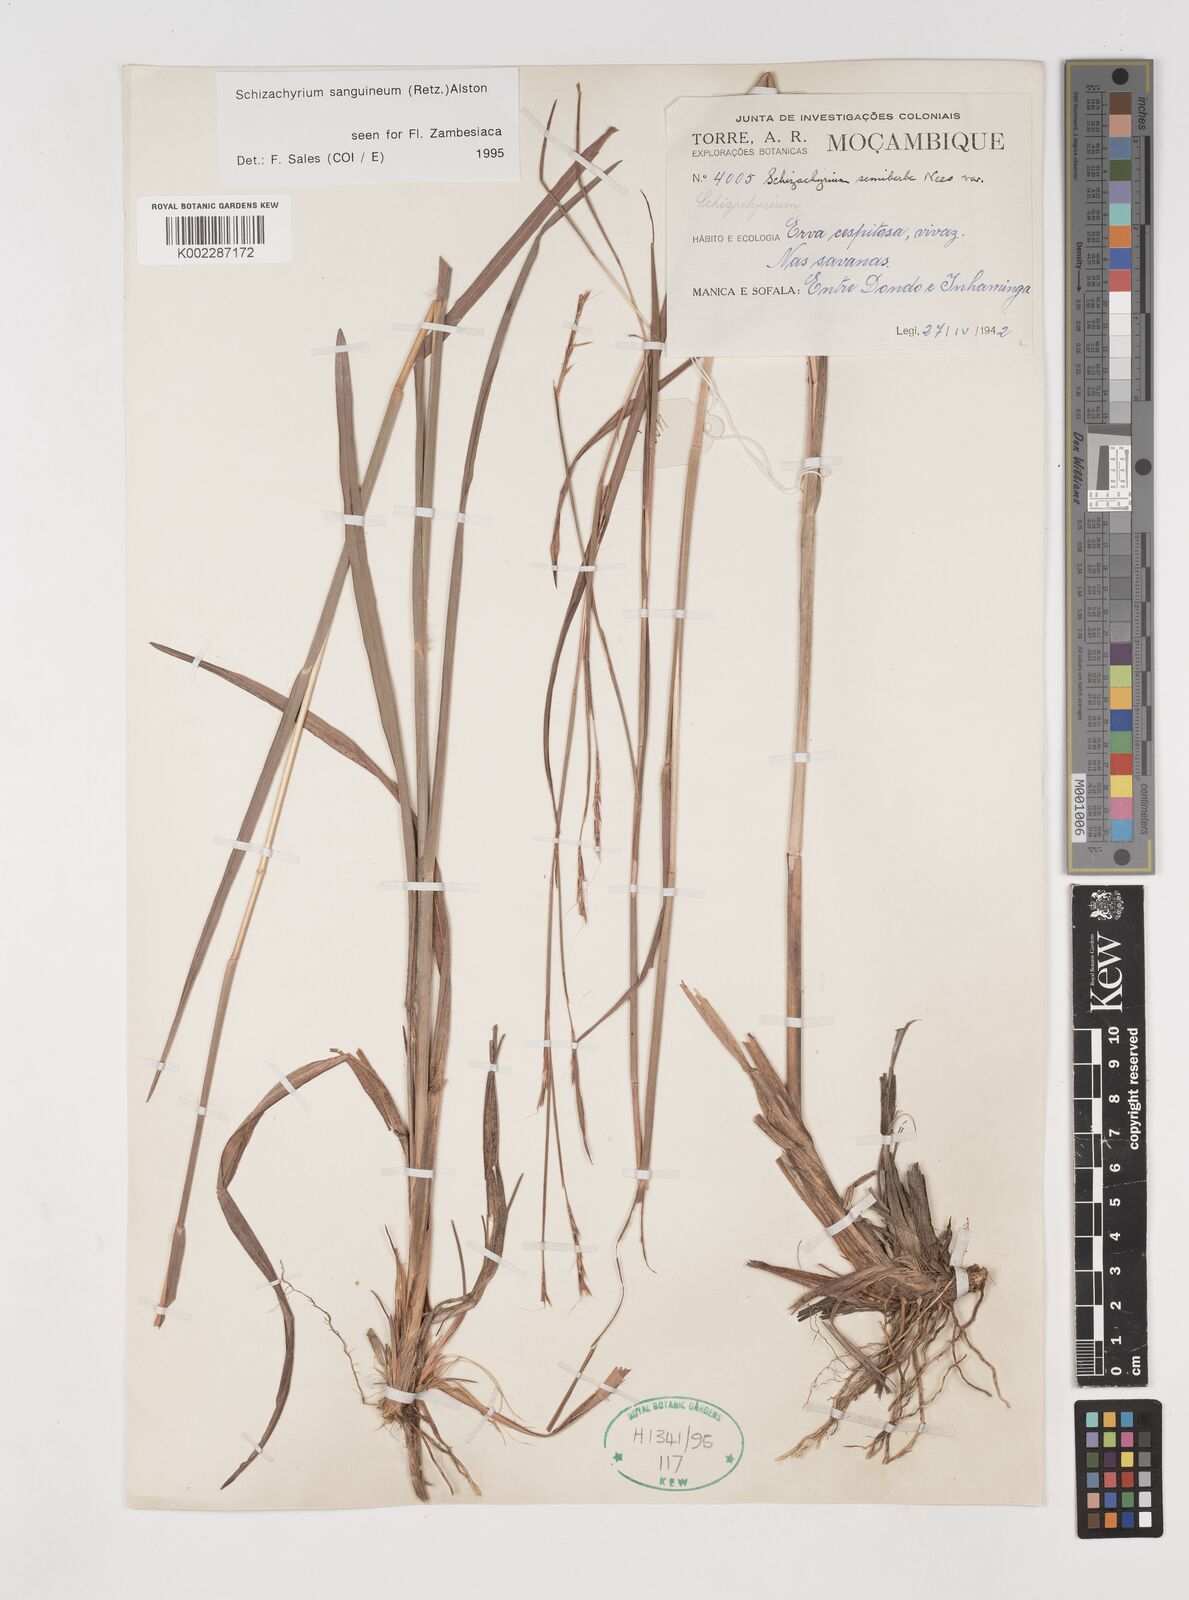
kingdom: Plantae
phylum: Tracheophyta
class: Liliopsida
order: Poales
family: Poaceae
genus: Schizachyrium
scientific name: Schizachyrium sanguineum
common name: Crimson bluestem
